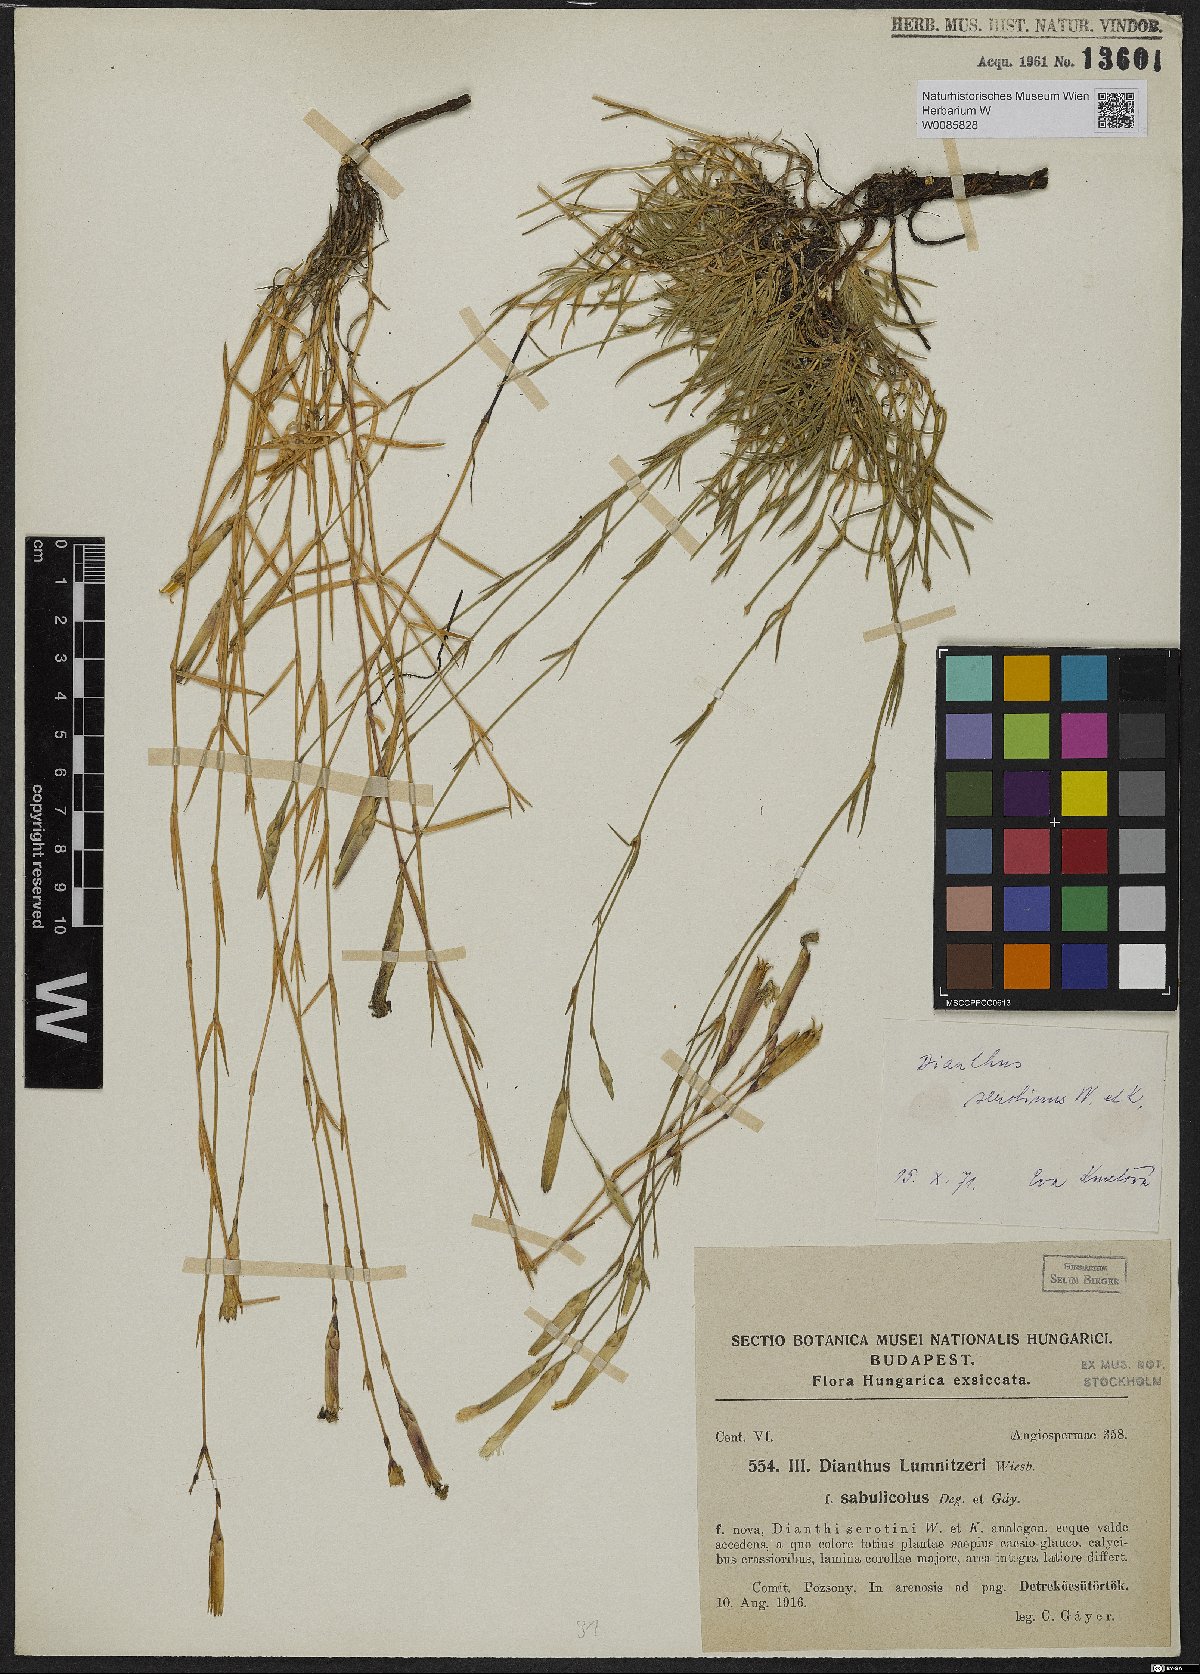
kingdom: Plantae
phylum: Tracheophyta
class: Magnoliopsida
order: Caryophyllales
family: Caryophyllaceae
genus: Dianthus
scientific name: Dianthus praecox
